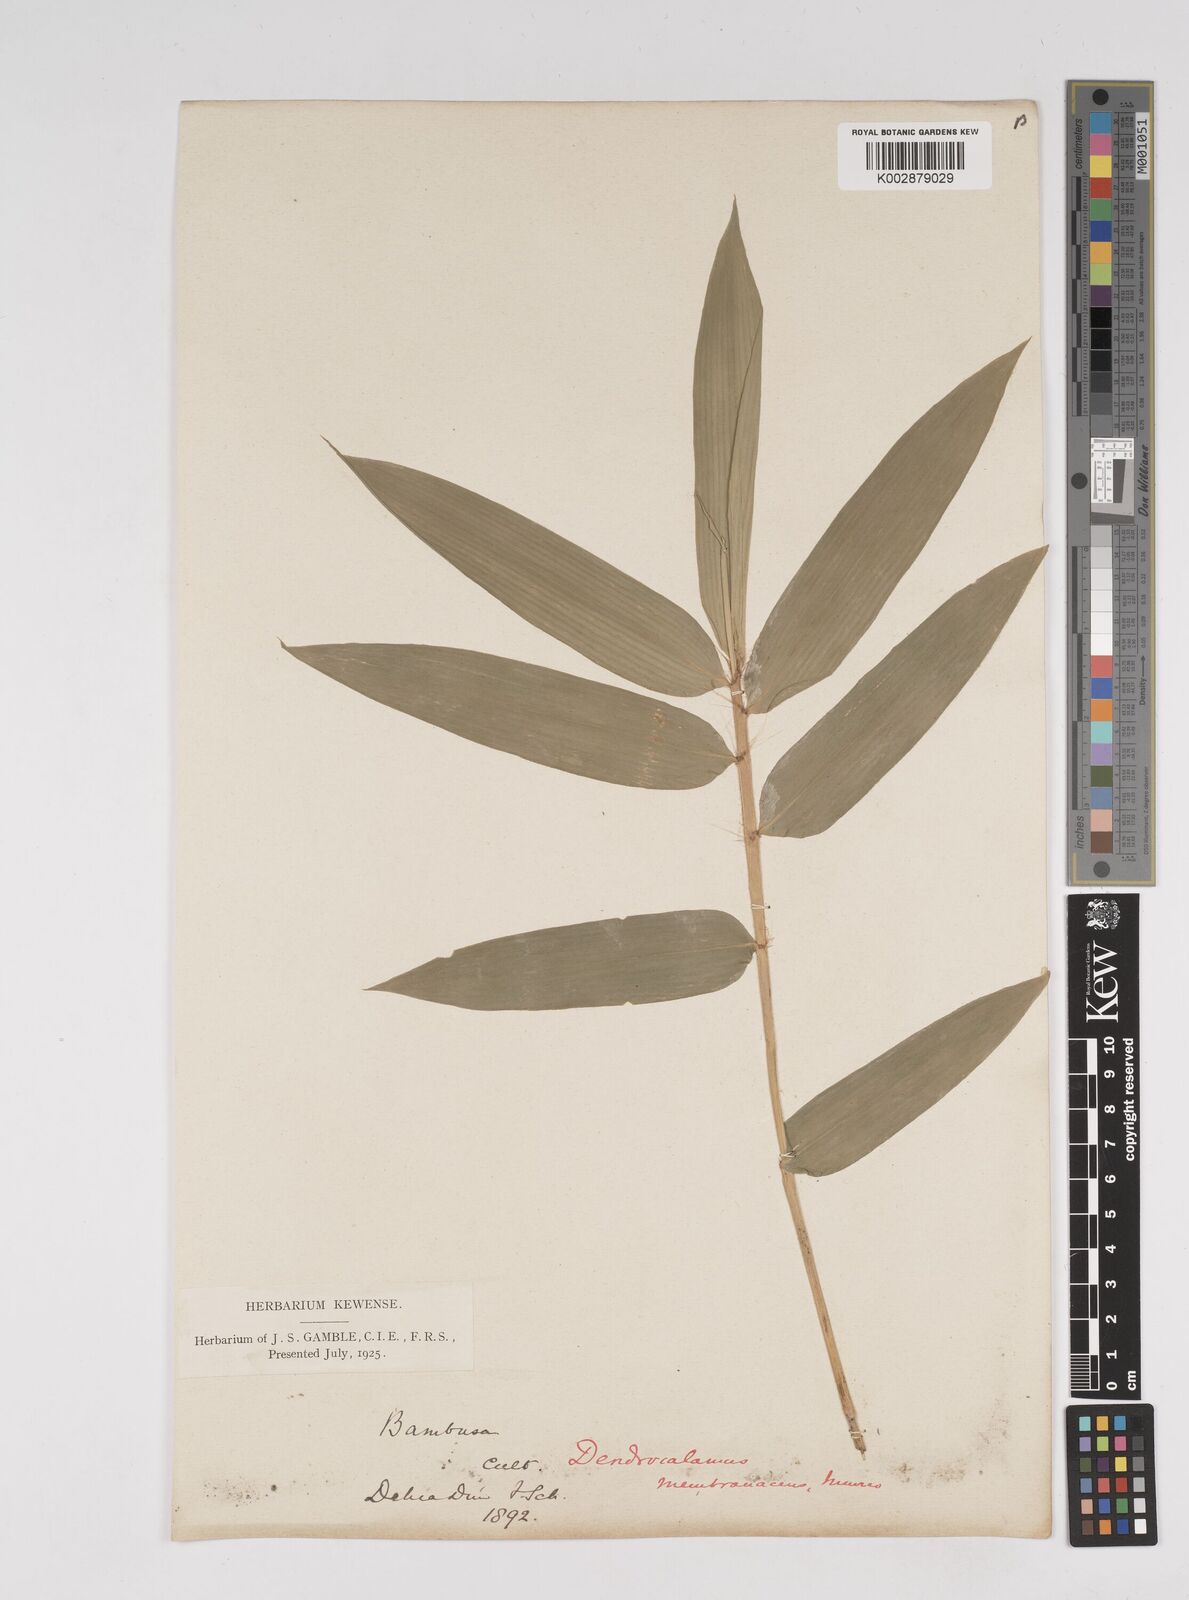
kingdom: Plantae
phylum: Tracheophyta
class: Liliopsida
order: Poales
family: Poaceae
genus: Dendrocalamus
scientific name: Dendrocalamus membranaceus
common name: White bamboo
